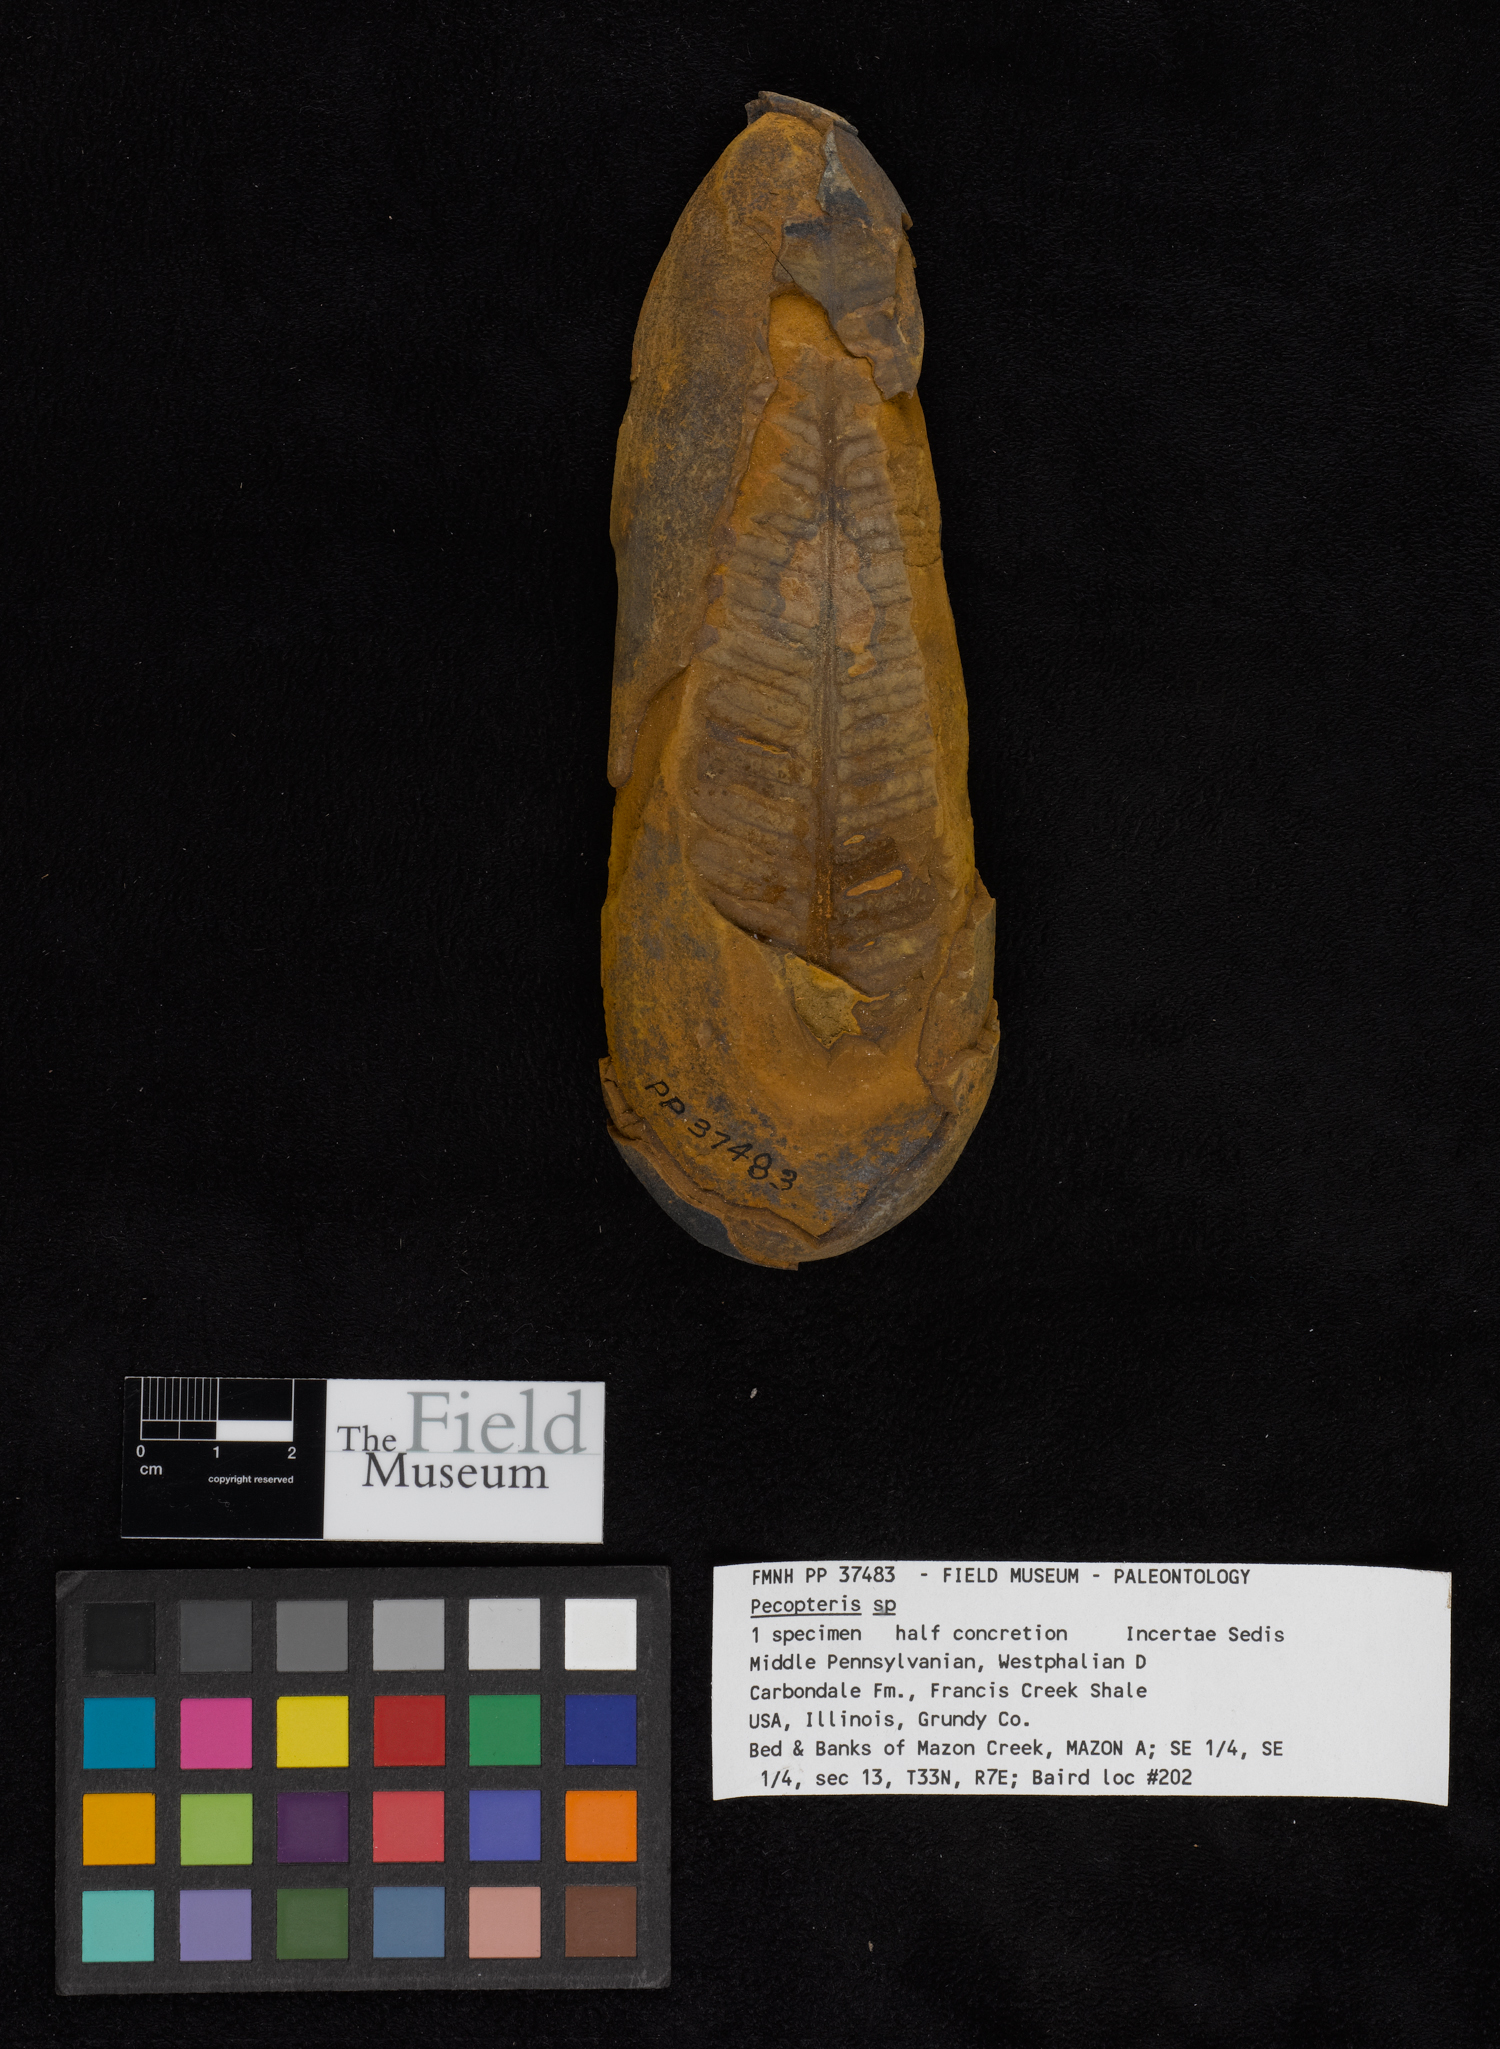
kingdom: Plantae
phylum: Tracheophyta
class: Polypodiopsida
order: Marattiales
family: Asterothecaceae
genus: Pecopteris
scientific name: Pecopteris
